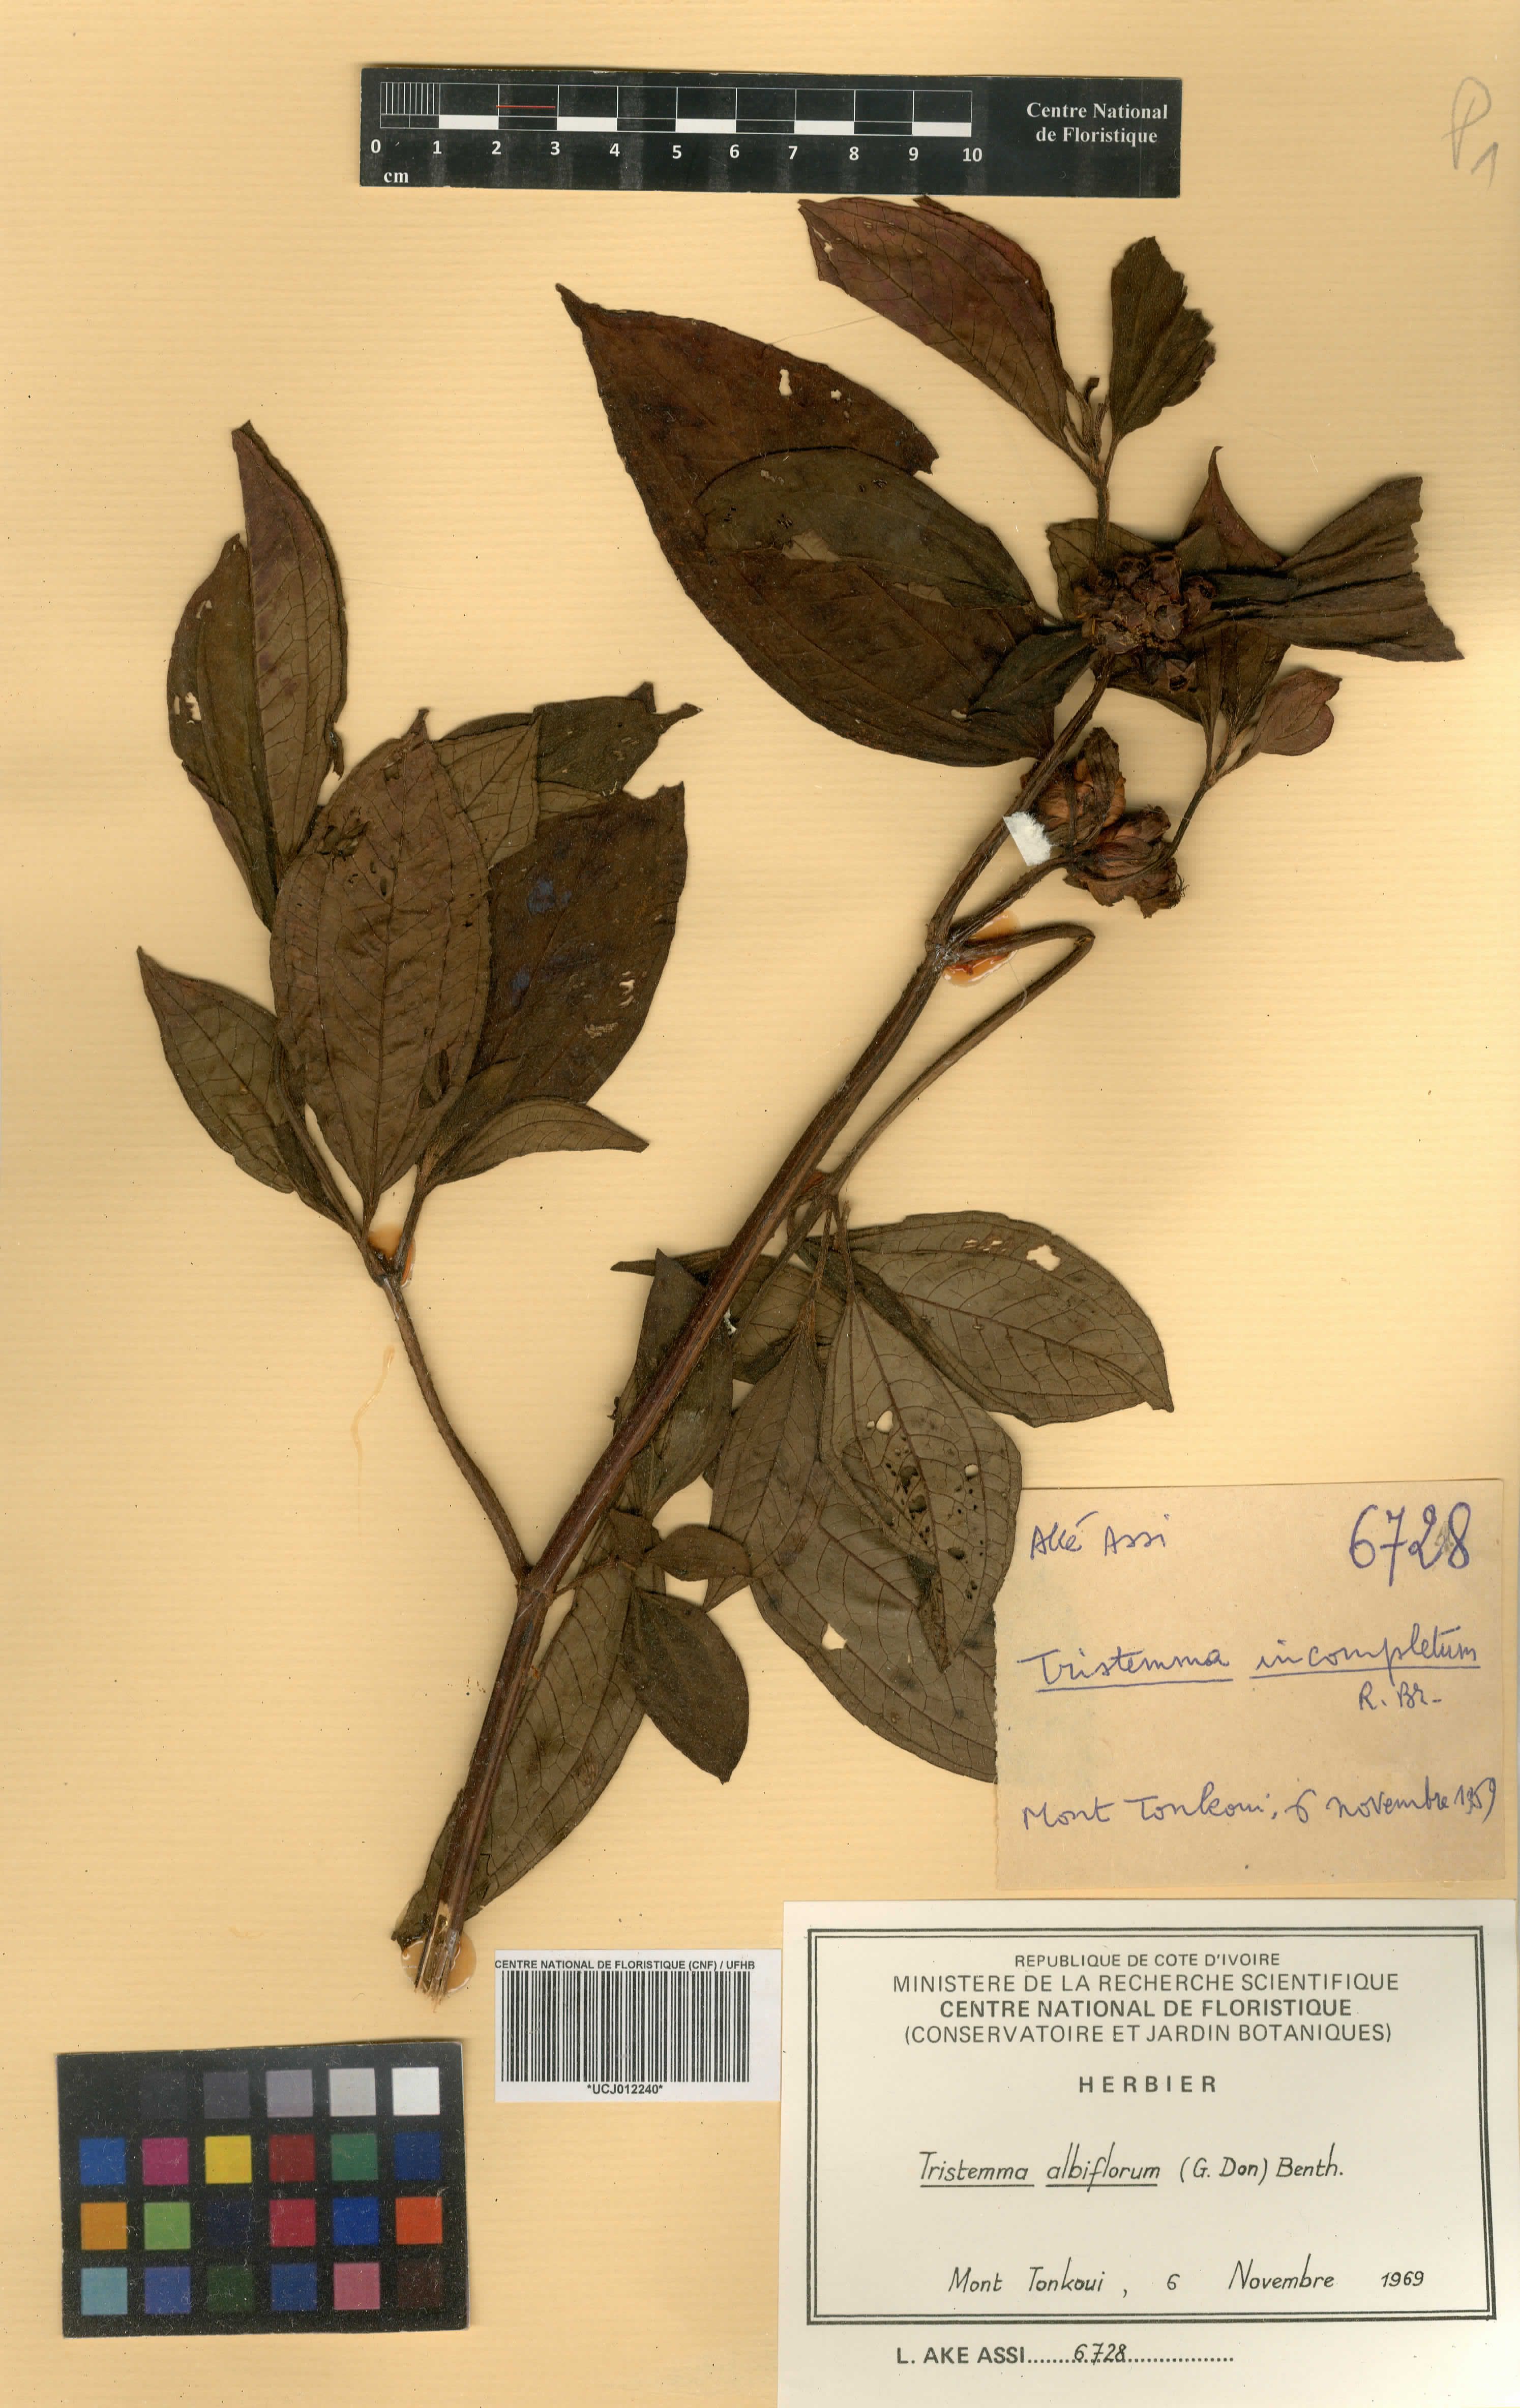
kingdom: Plantae
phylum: Tracheophyta
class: Magnoliopsida
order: Myrtales
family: Melastomataceae
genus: Tristemma
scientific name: Tristemma albiflorum
